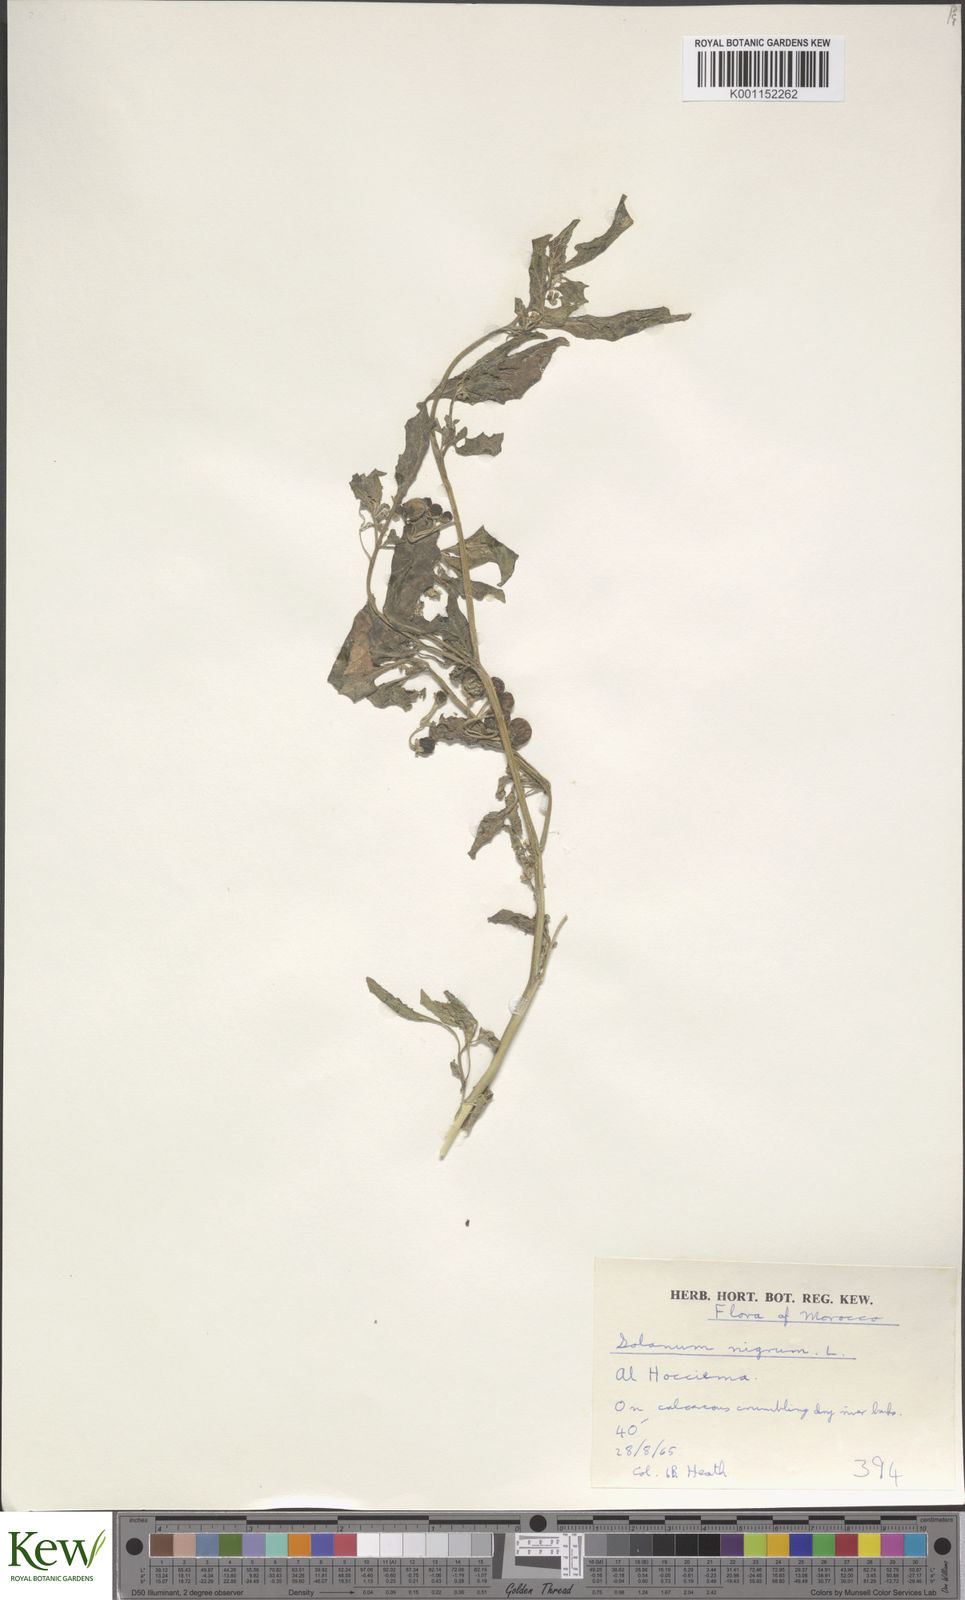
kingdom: Plantae
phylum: Tracheophyta
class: Magnoliopsida
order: Solanales
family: Solanaceae
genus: Solanum
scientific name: Solanum villosum
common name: Red nightshade
